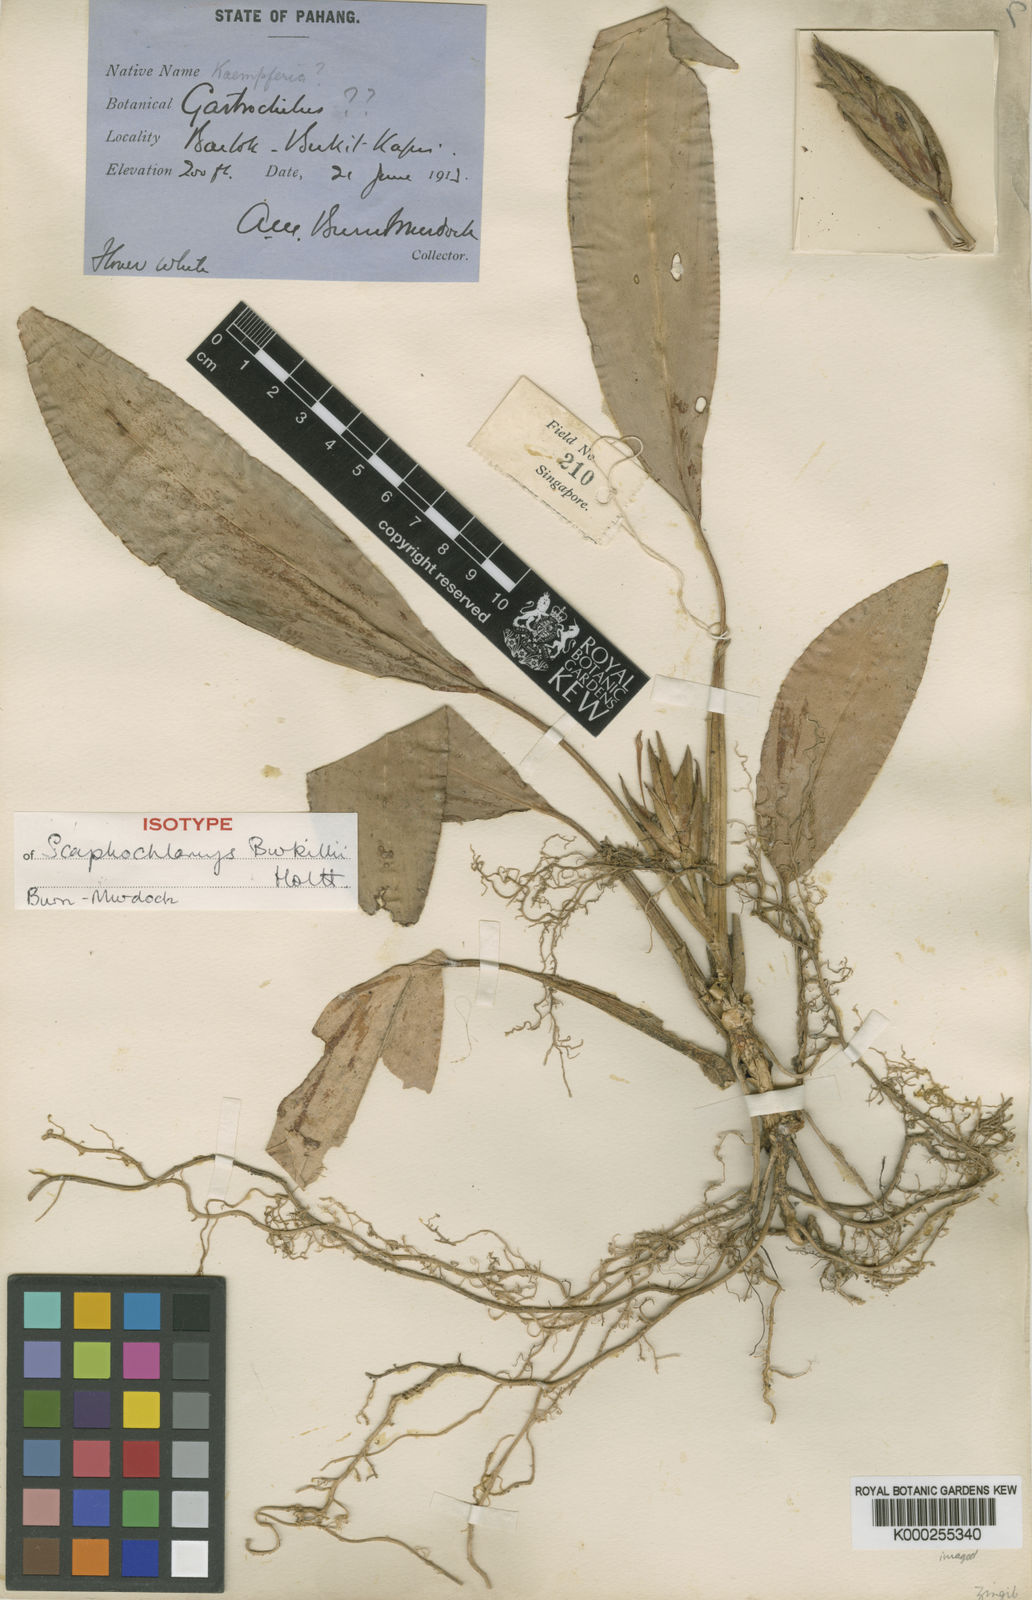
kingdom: Plantae
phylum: Tracheophyta
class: Liliopsida
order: Zingiberales
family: Zingiberaceae
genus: Scaphochlamys
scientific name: Scaphochlamys burkillii
